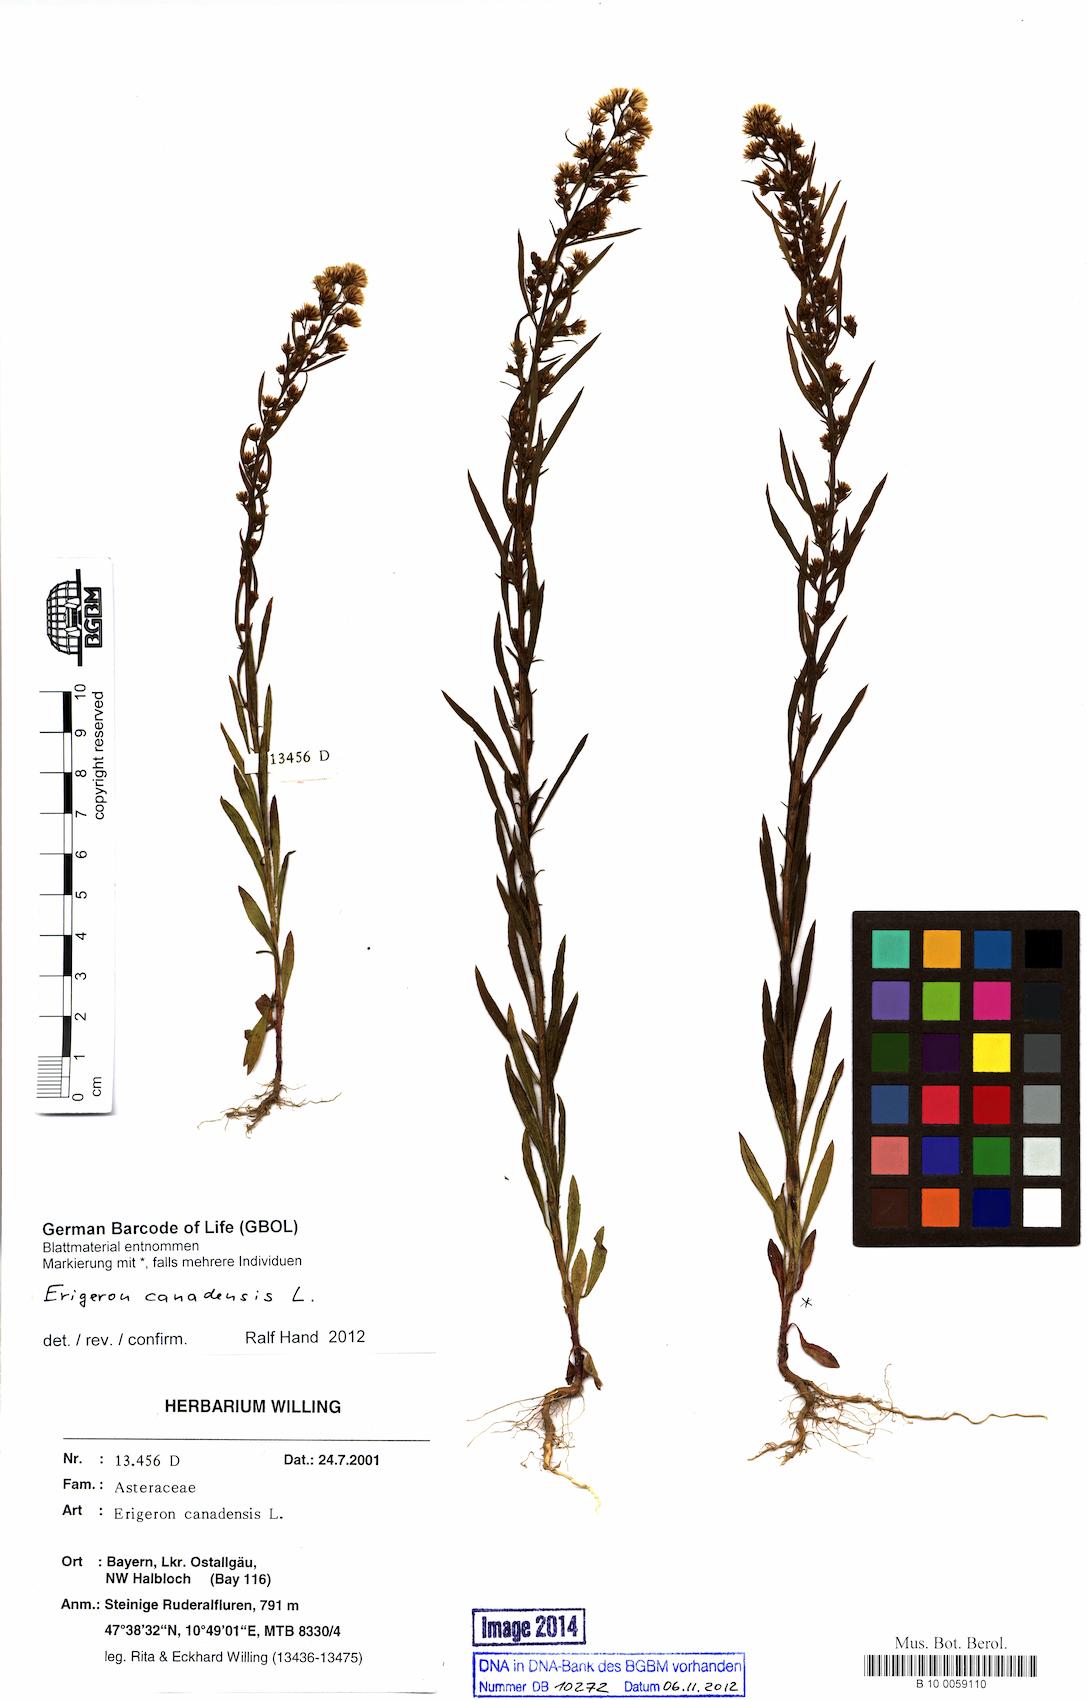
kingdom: Plantae
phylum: Tracheophyta
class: Magnoliopsida
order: Asterales
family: Asteraceae
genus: Erigeron
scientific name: Erigeron canadensis
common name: Canadian fleabane
